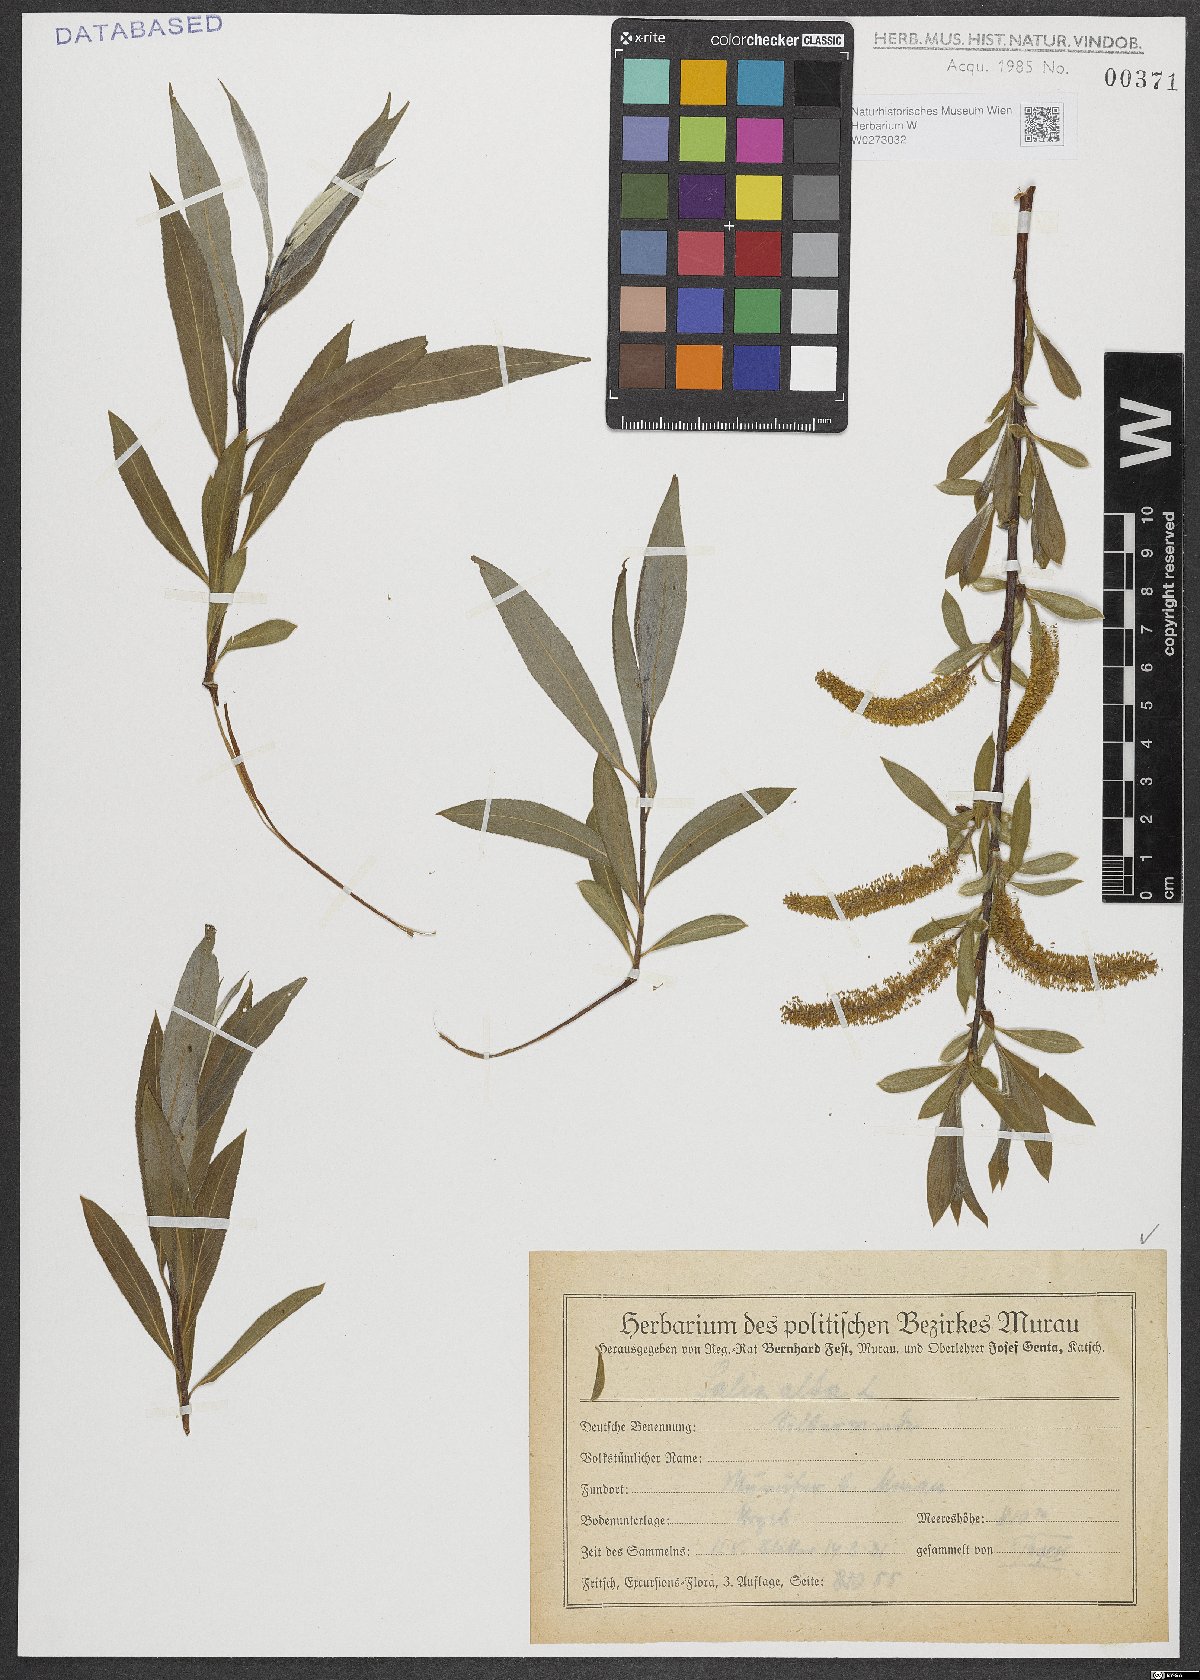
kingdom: Plantae
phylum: Tracheophyta
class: Magnoliopsida
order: Malpighiales
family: Salicaceae
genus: Salix
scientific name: Salix alba
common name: White willow
